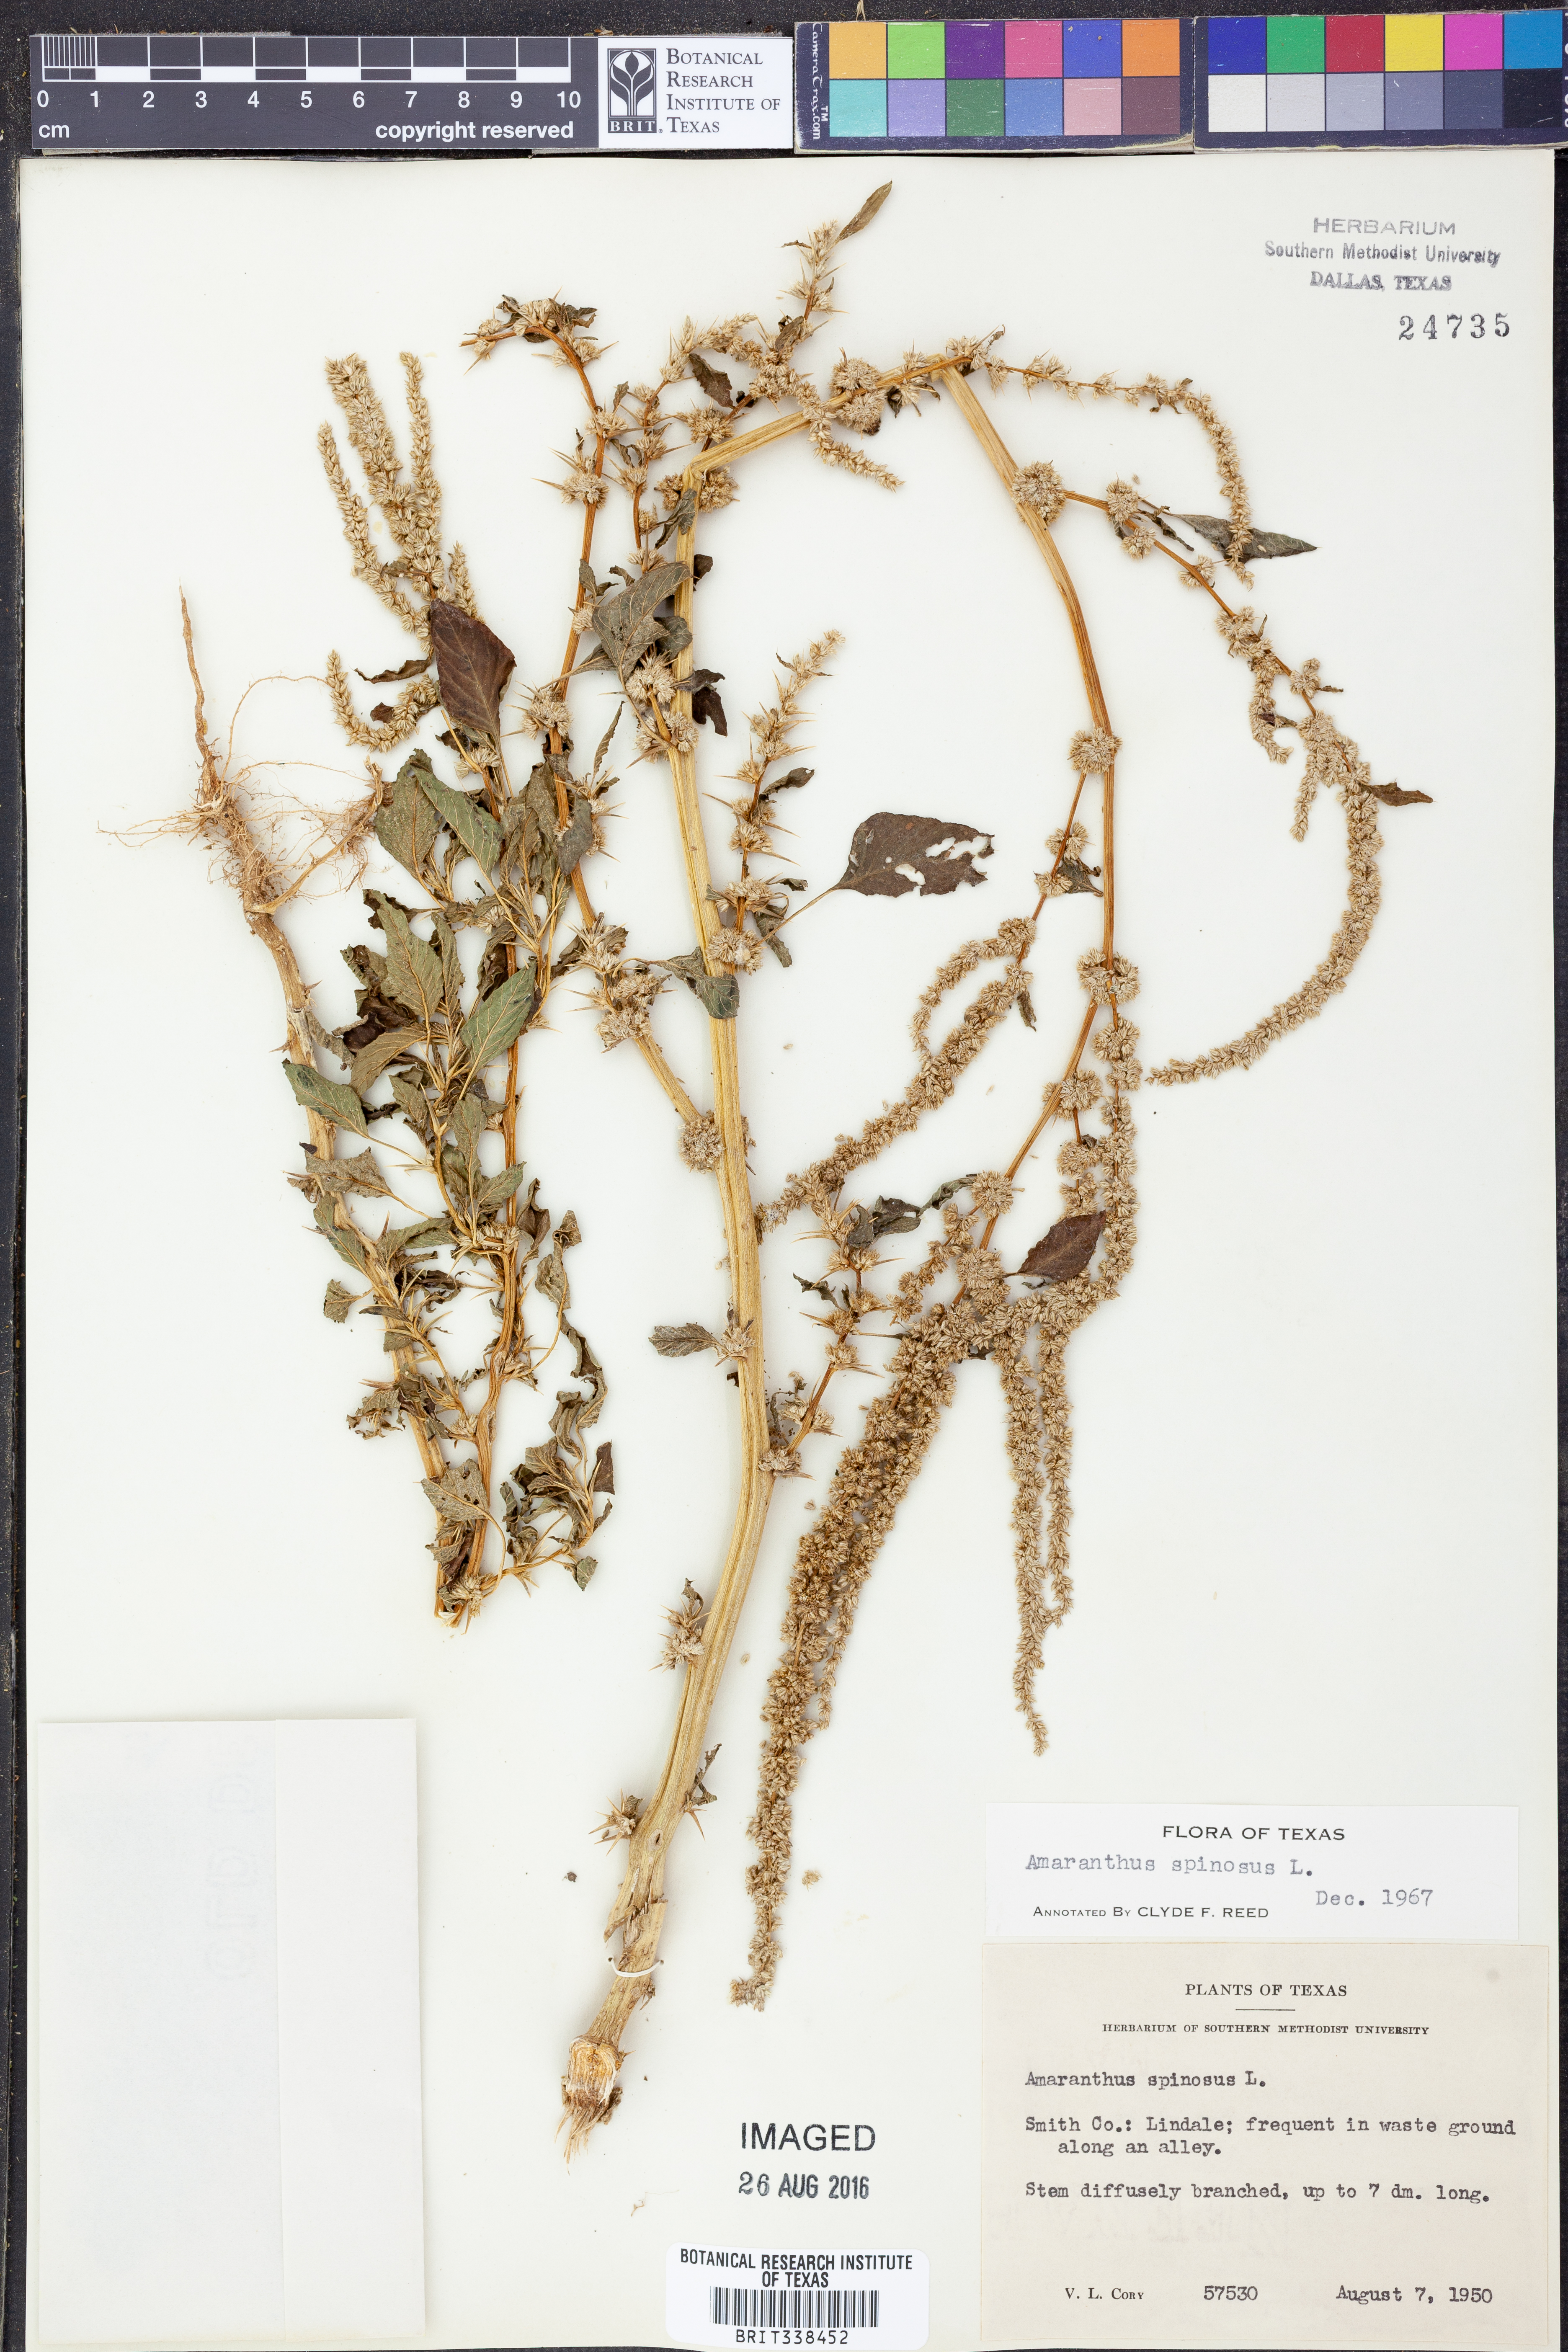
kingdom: Plantae
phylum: Tracheophyta
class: Magnoliopsida
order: Caryophyllales
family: Amaranthaceae
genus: Amaranthus
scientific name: Amaranthus spinosus
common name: Spiny amaranth
